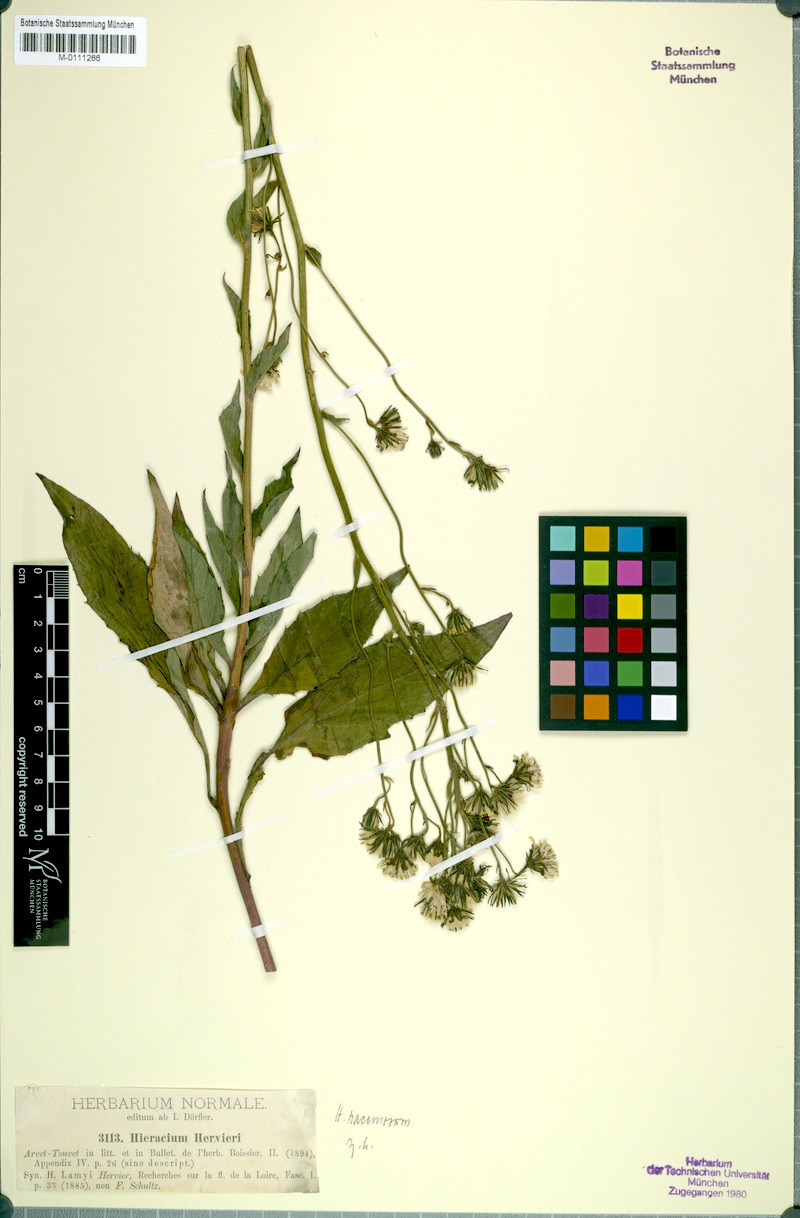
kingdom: Plantae
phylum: Tracheophyta
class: Magnoliopsida
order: Asterales
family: Asteraceae
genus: Hieracium
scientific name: Hieracium racemosum
